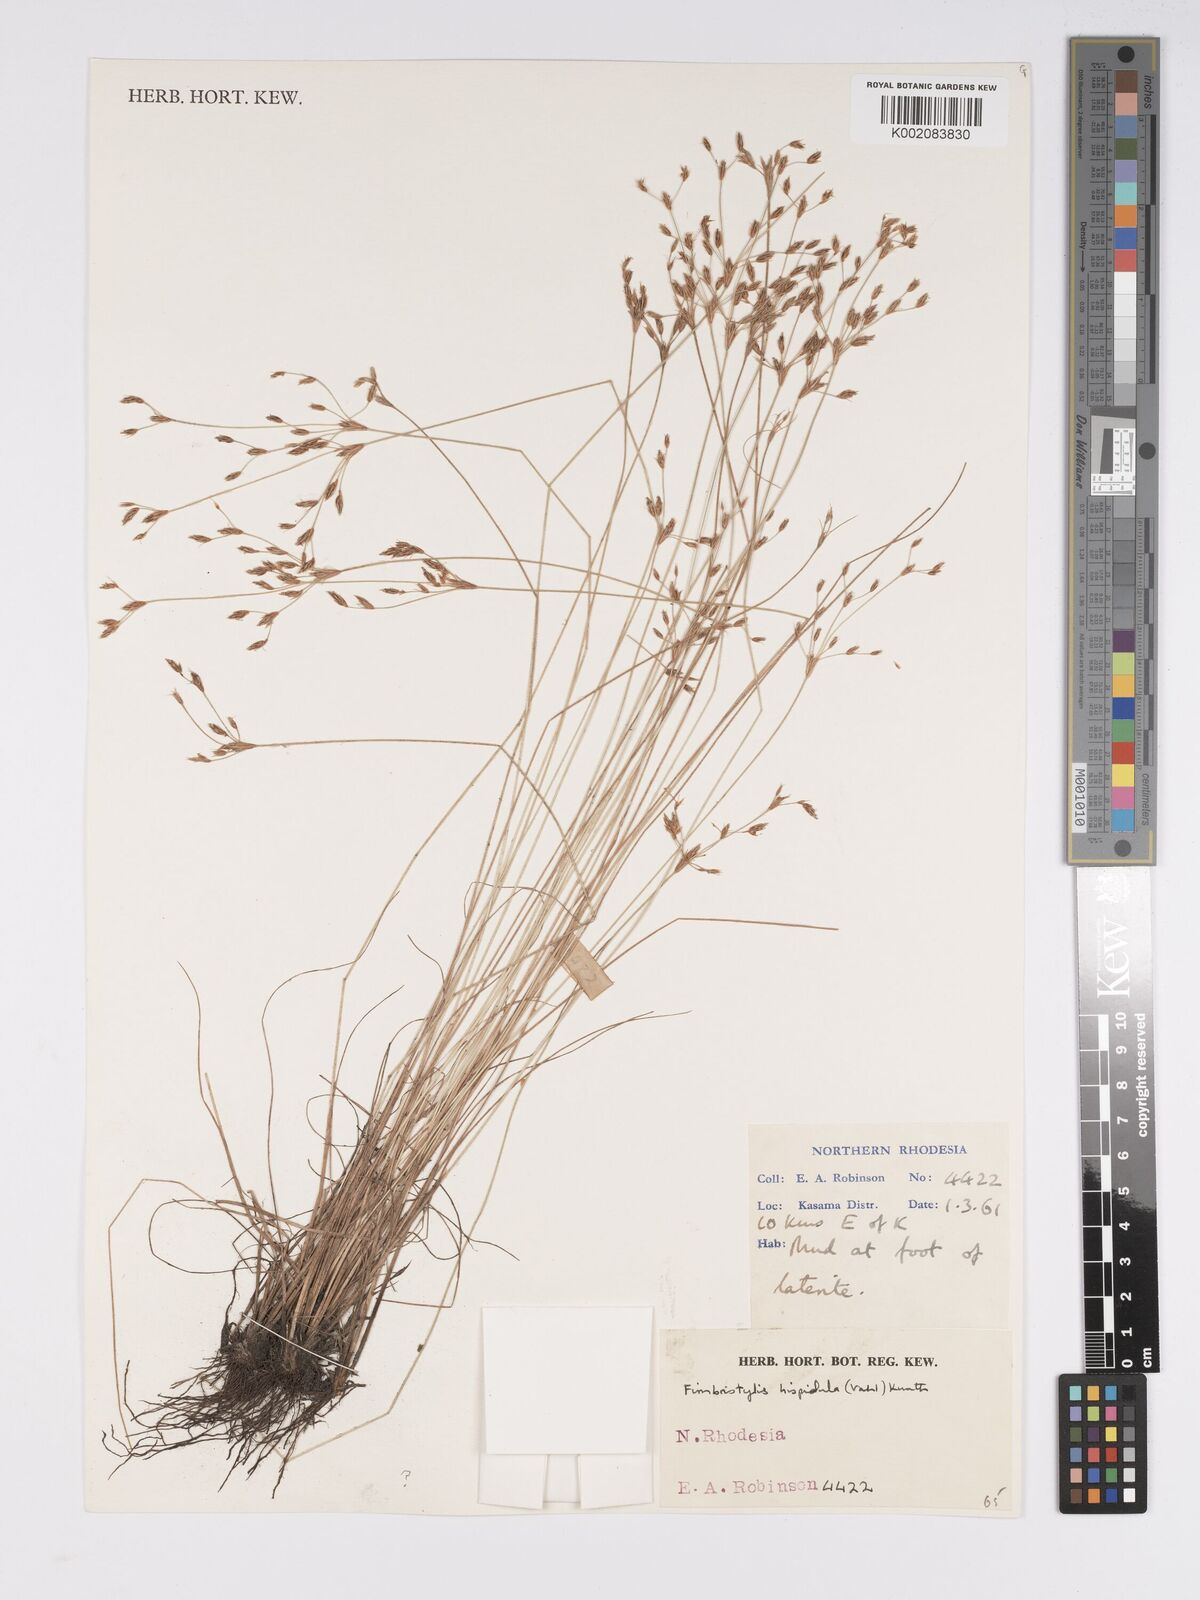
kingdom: Plantae
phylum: Tracheophyta
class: Liliopsida
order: Poales
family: Cyperaceae
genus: Bulbostylis
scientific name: Bulbostylis hispidula
